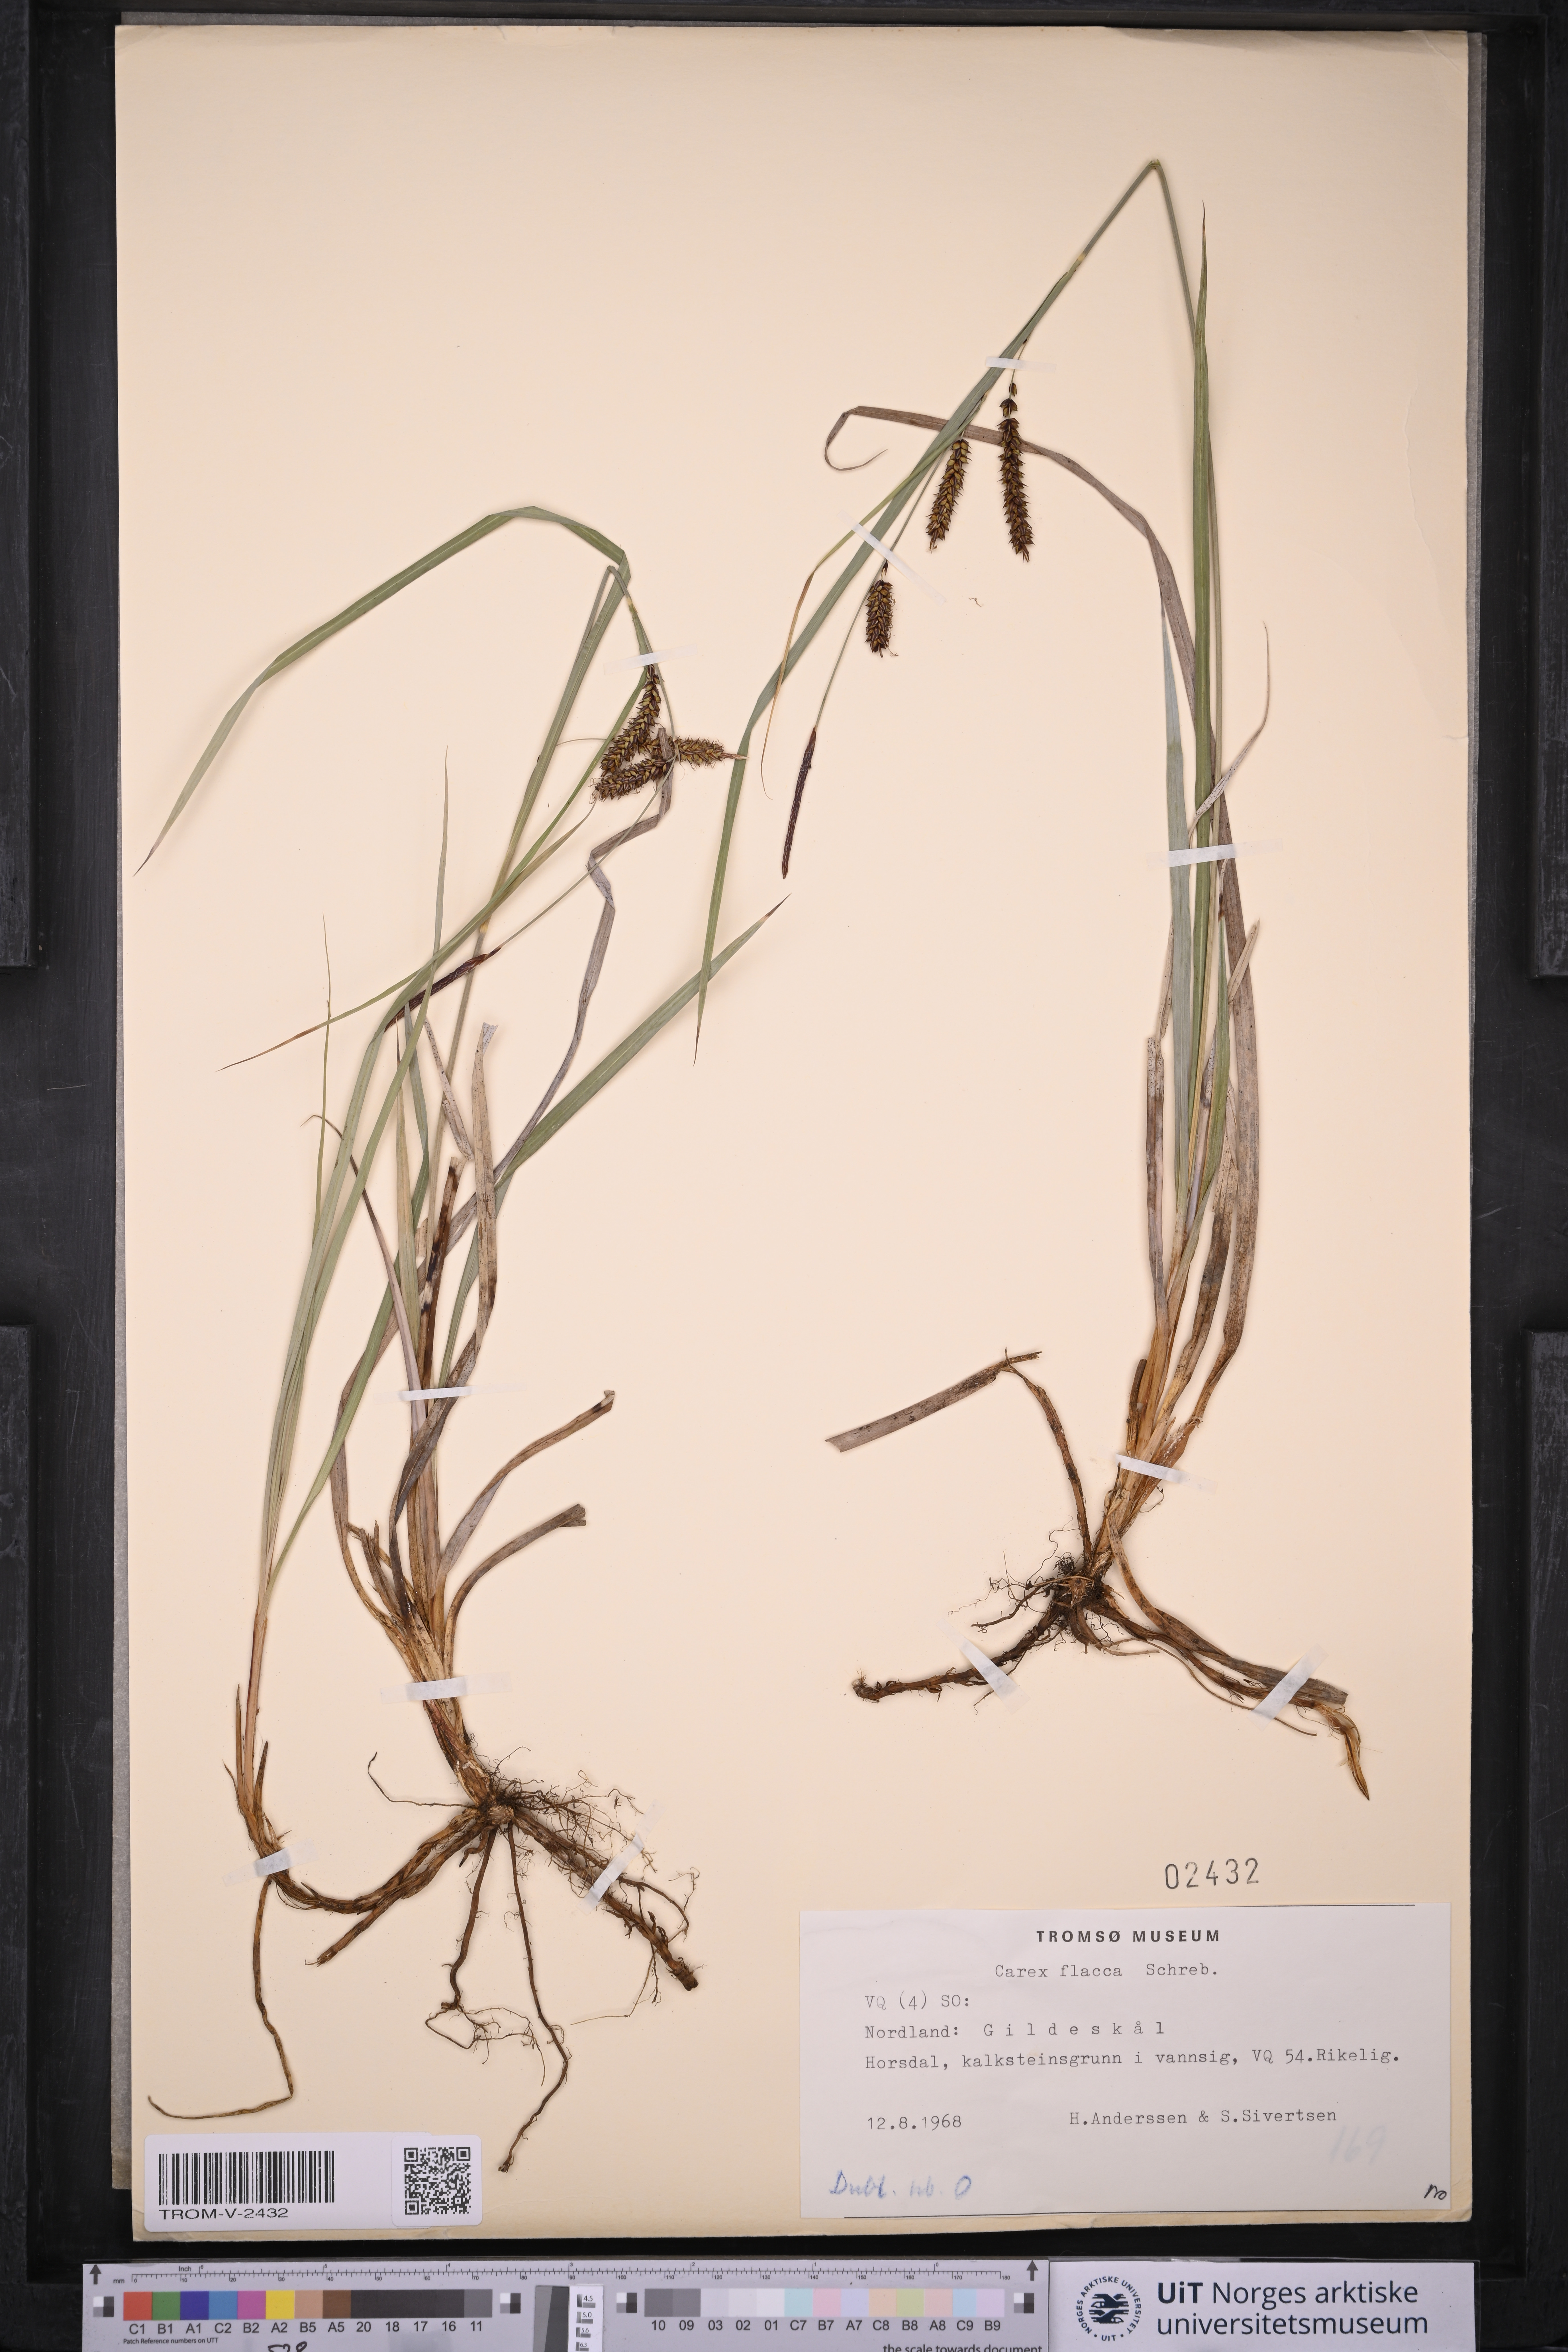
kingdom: Plantae
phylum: Tracheophyta
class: Liliopsida
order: Poales
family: Cyperaceae
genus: Carex
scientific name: Carex flacca
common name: Glaucous sedge
